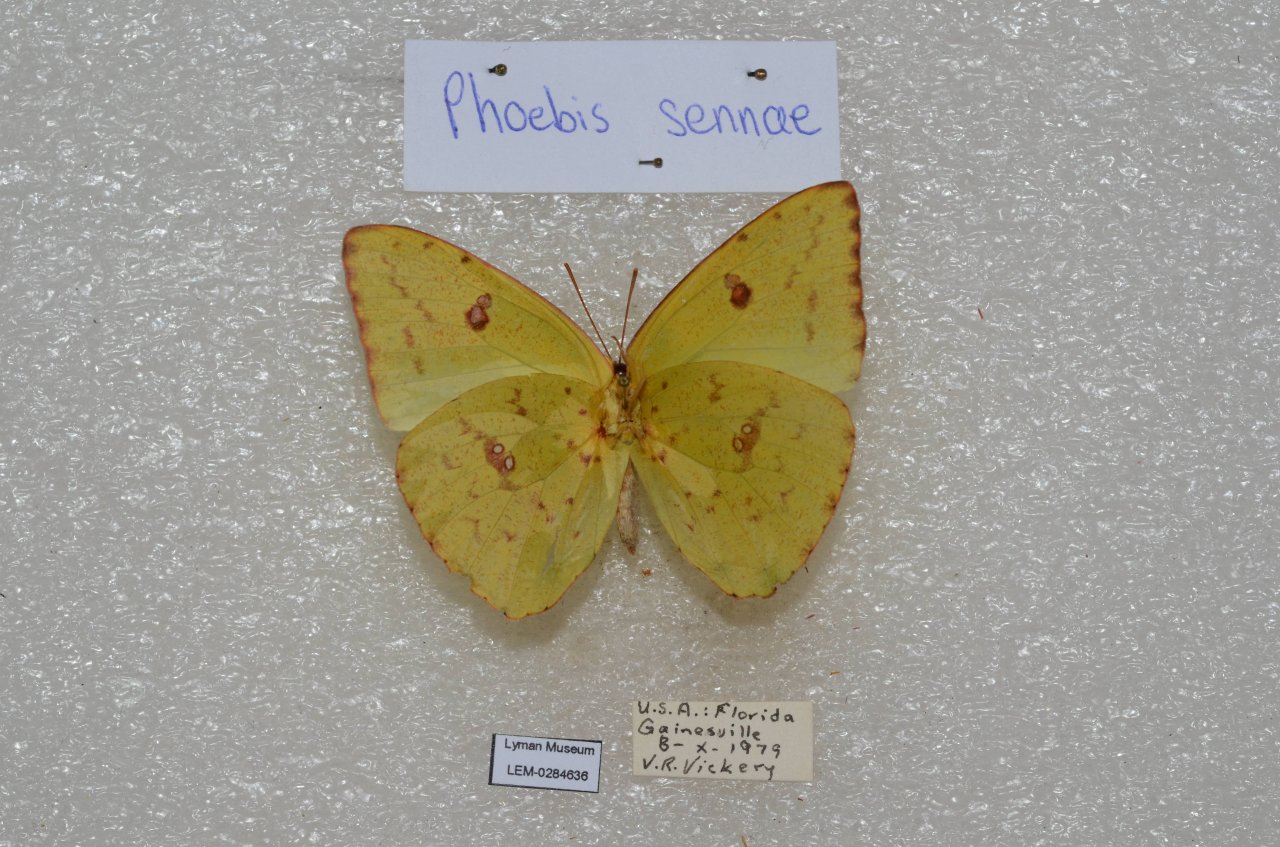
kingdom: Animalia
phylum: Arthropoda
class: Insecta
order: Lepidoptera
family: Pieridae
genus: Phoebis
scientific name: Phoebis sennae
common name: Cloudless Sulphur
